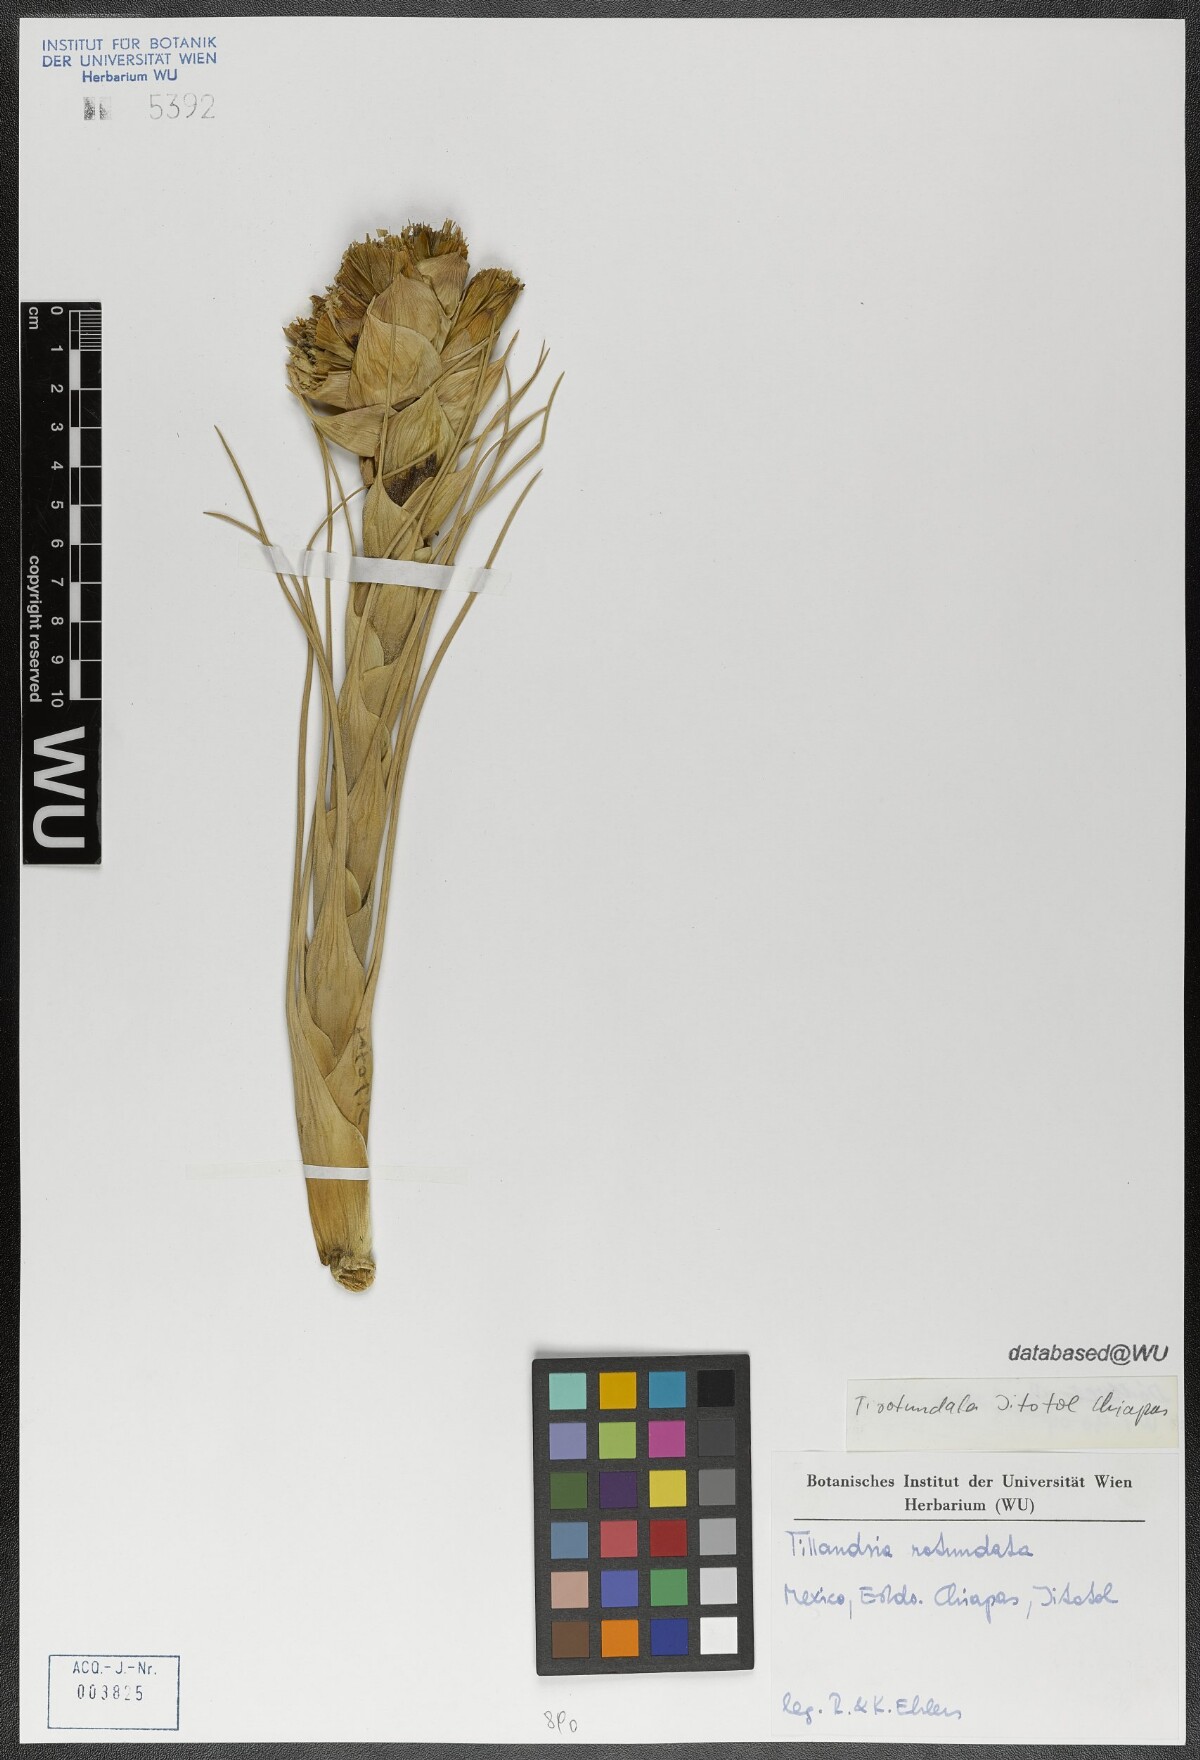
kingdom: Plantae
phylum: Tracheophyta
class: Liliopsida
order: Poales
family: Bromeliaceae
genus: Tillandsia
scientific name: Tillandsia rotundata
